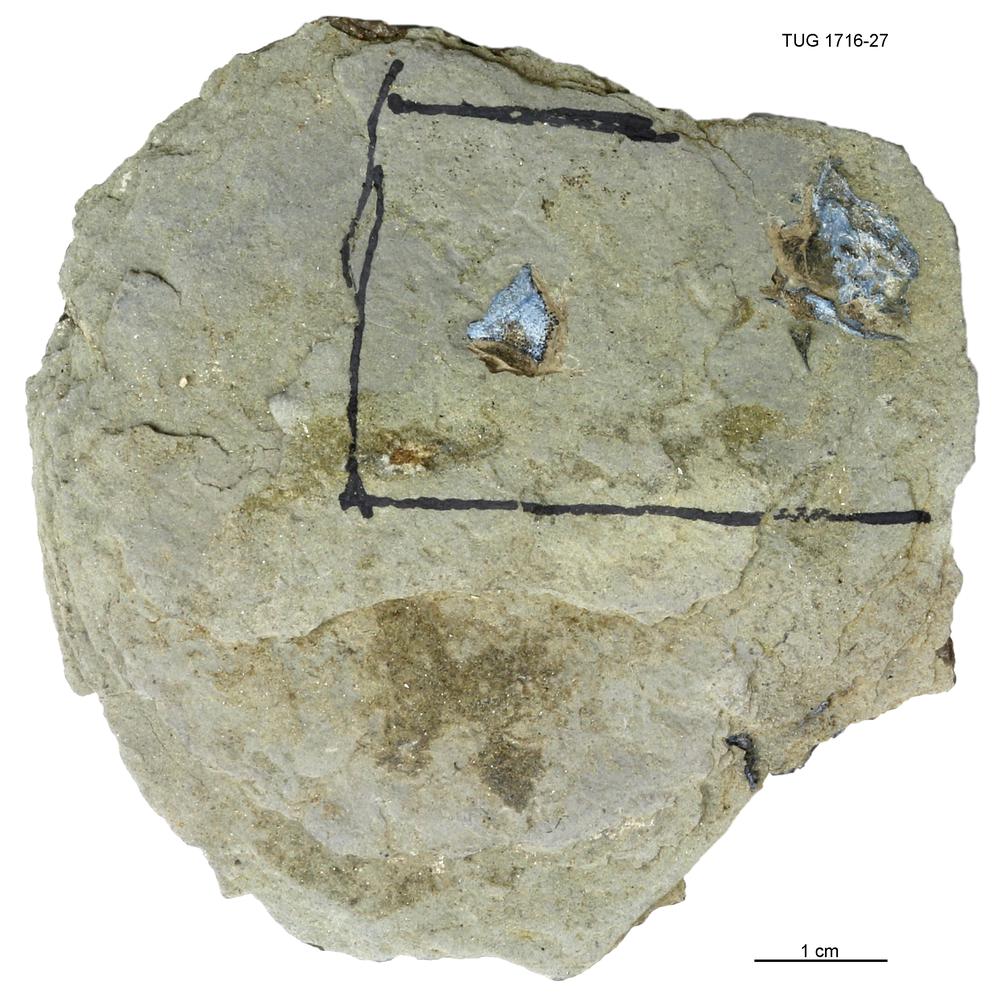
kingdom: Animalia
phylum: Chordata
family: Coccosteidae
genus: Millerosteus
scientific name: Millerosteus minor
